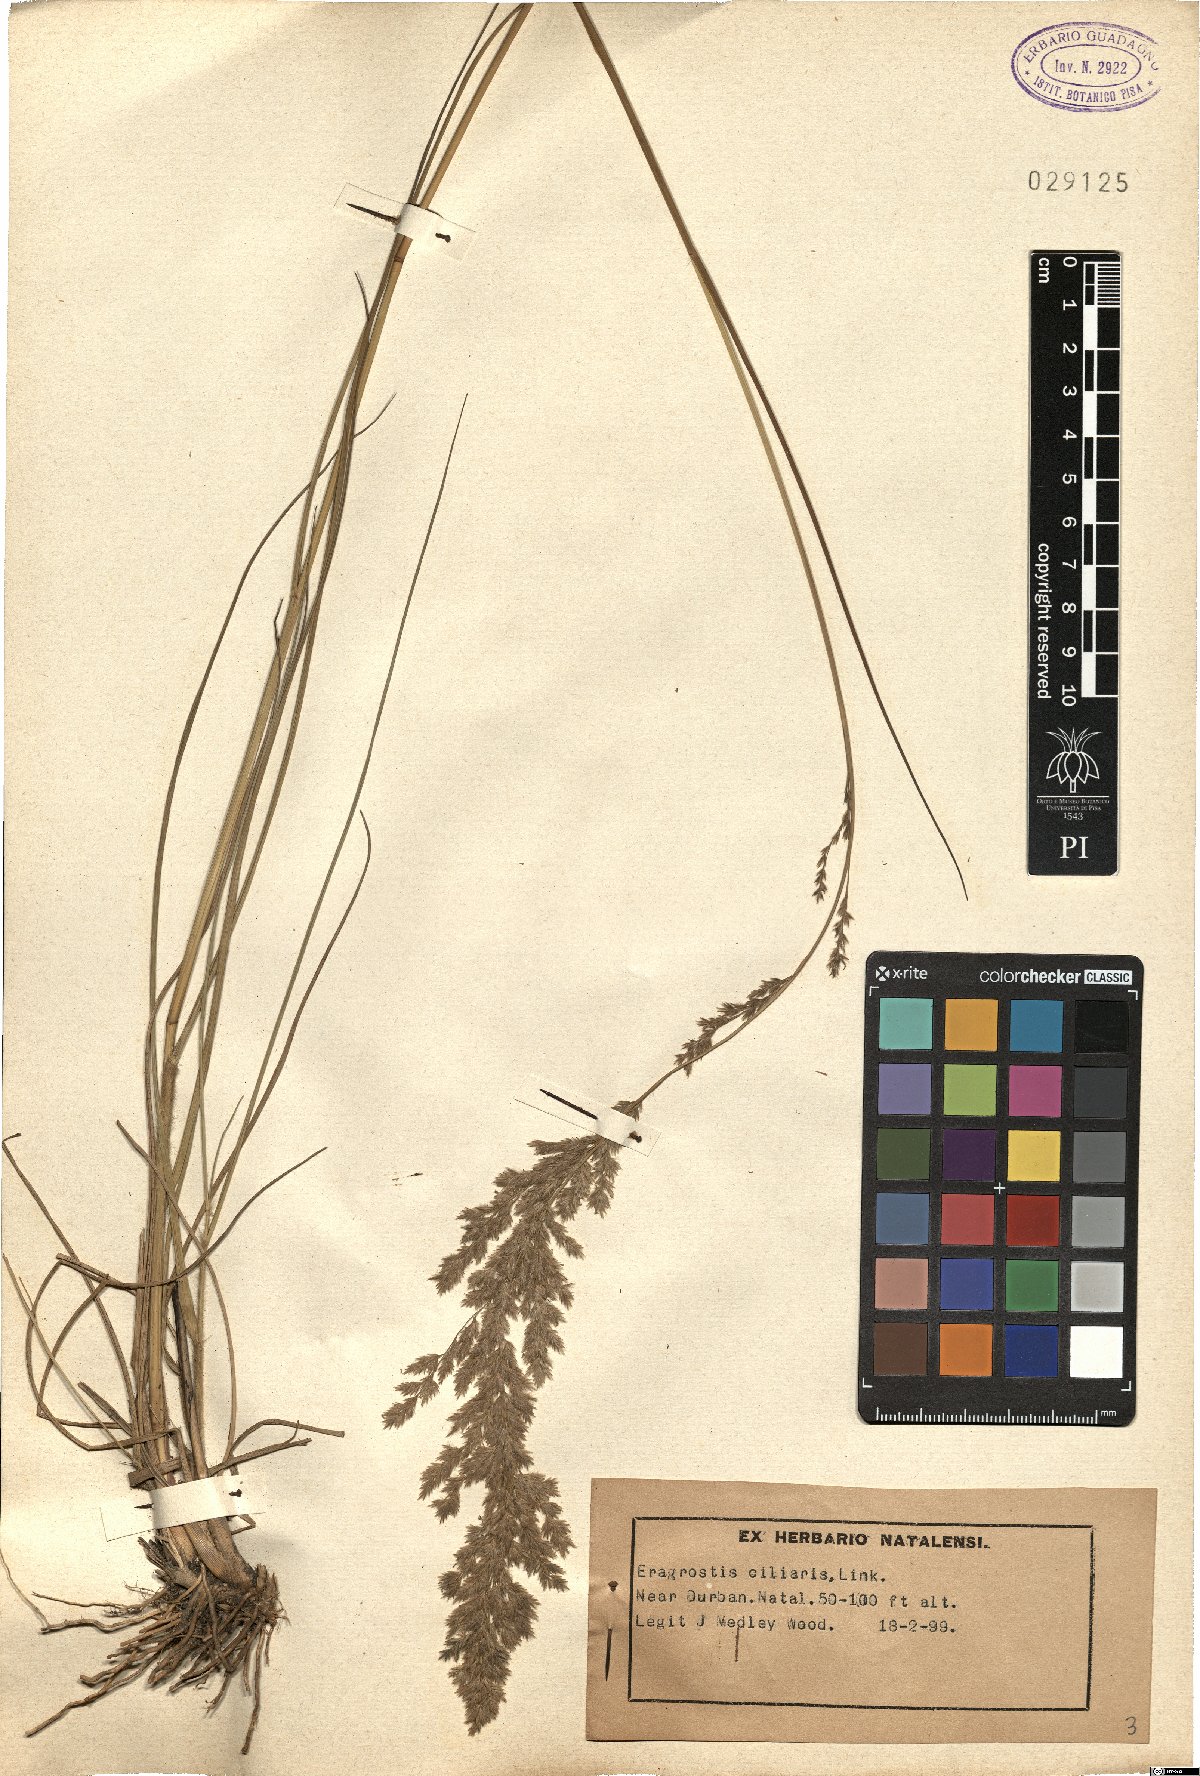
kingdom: Plantae
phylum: Tracheophyta
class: Liliopsida
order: Poales
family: Poaceae
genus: Eragrostis
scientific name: Eragrostis ciliaris
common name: Gophertail lovegrass
